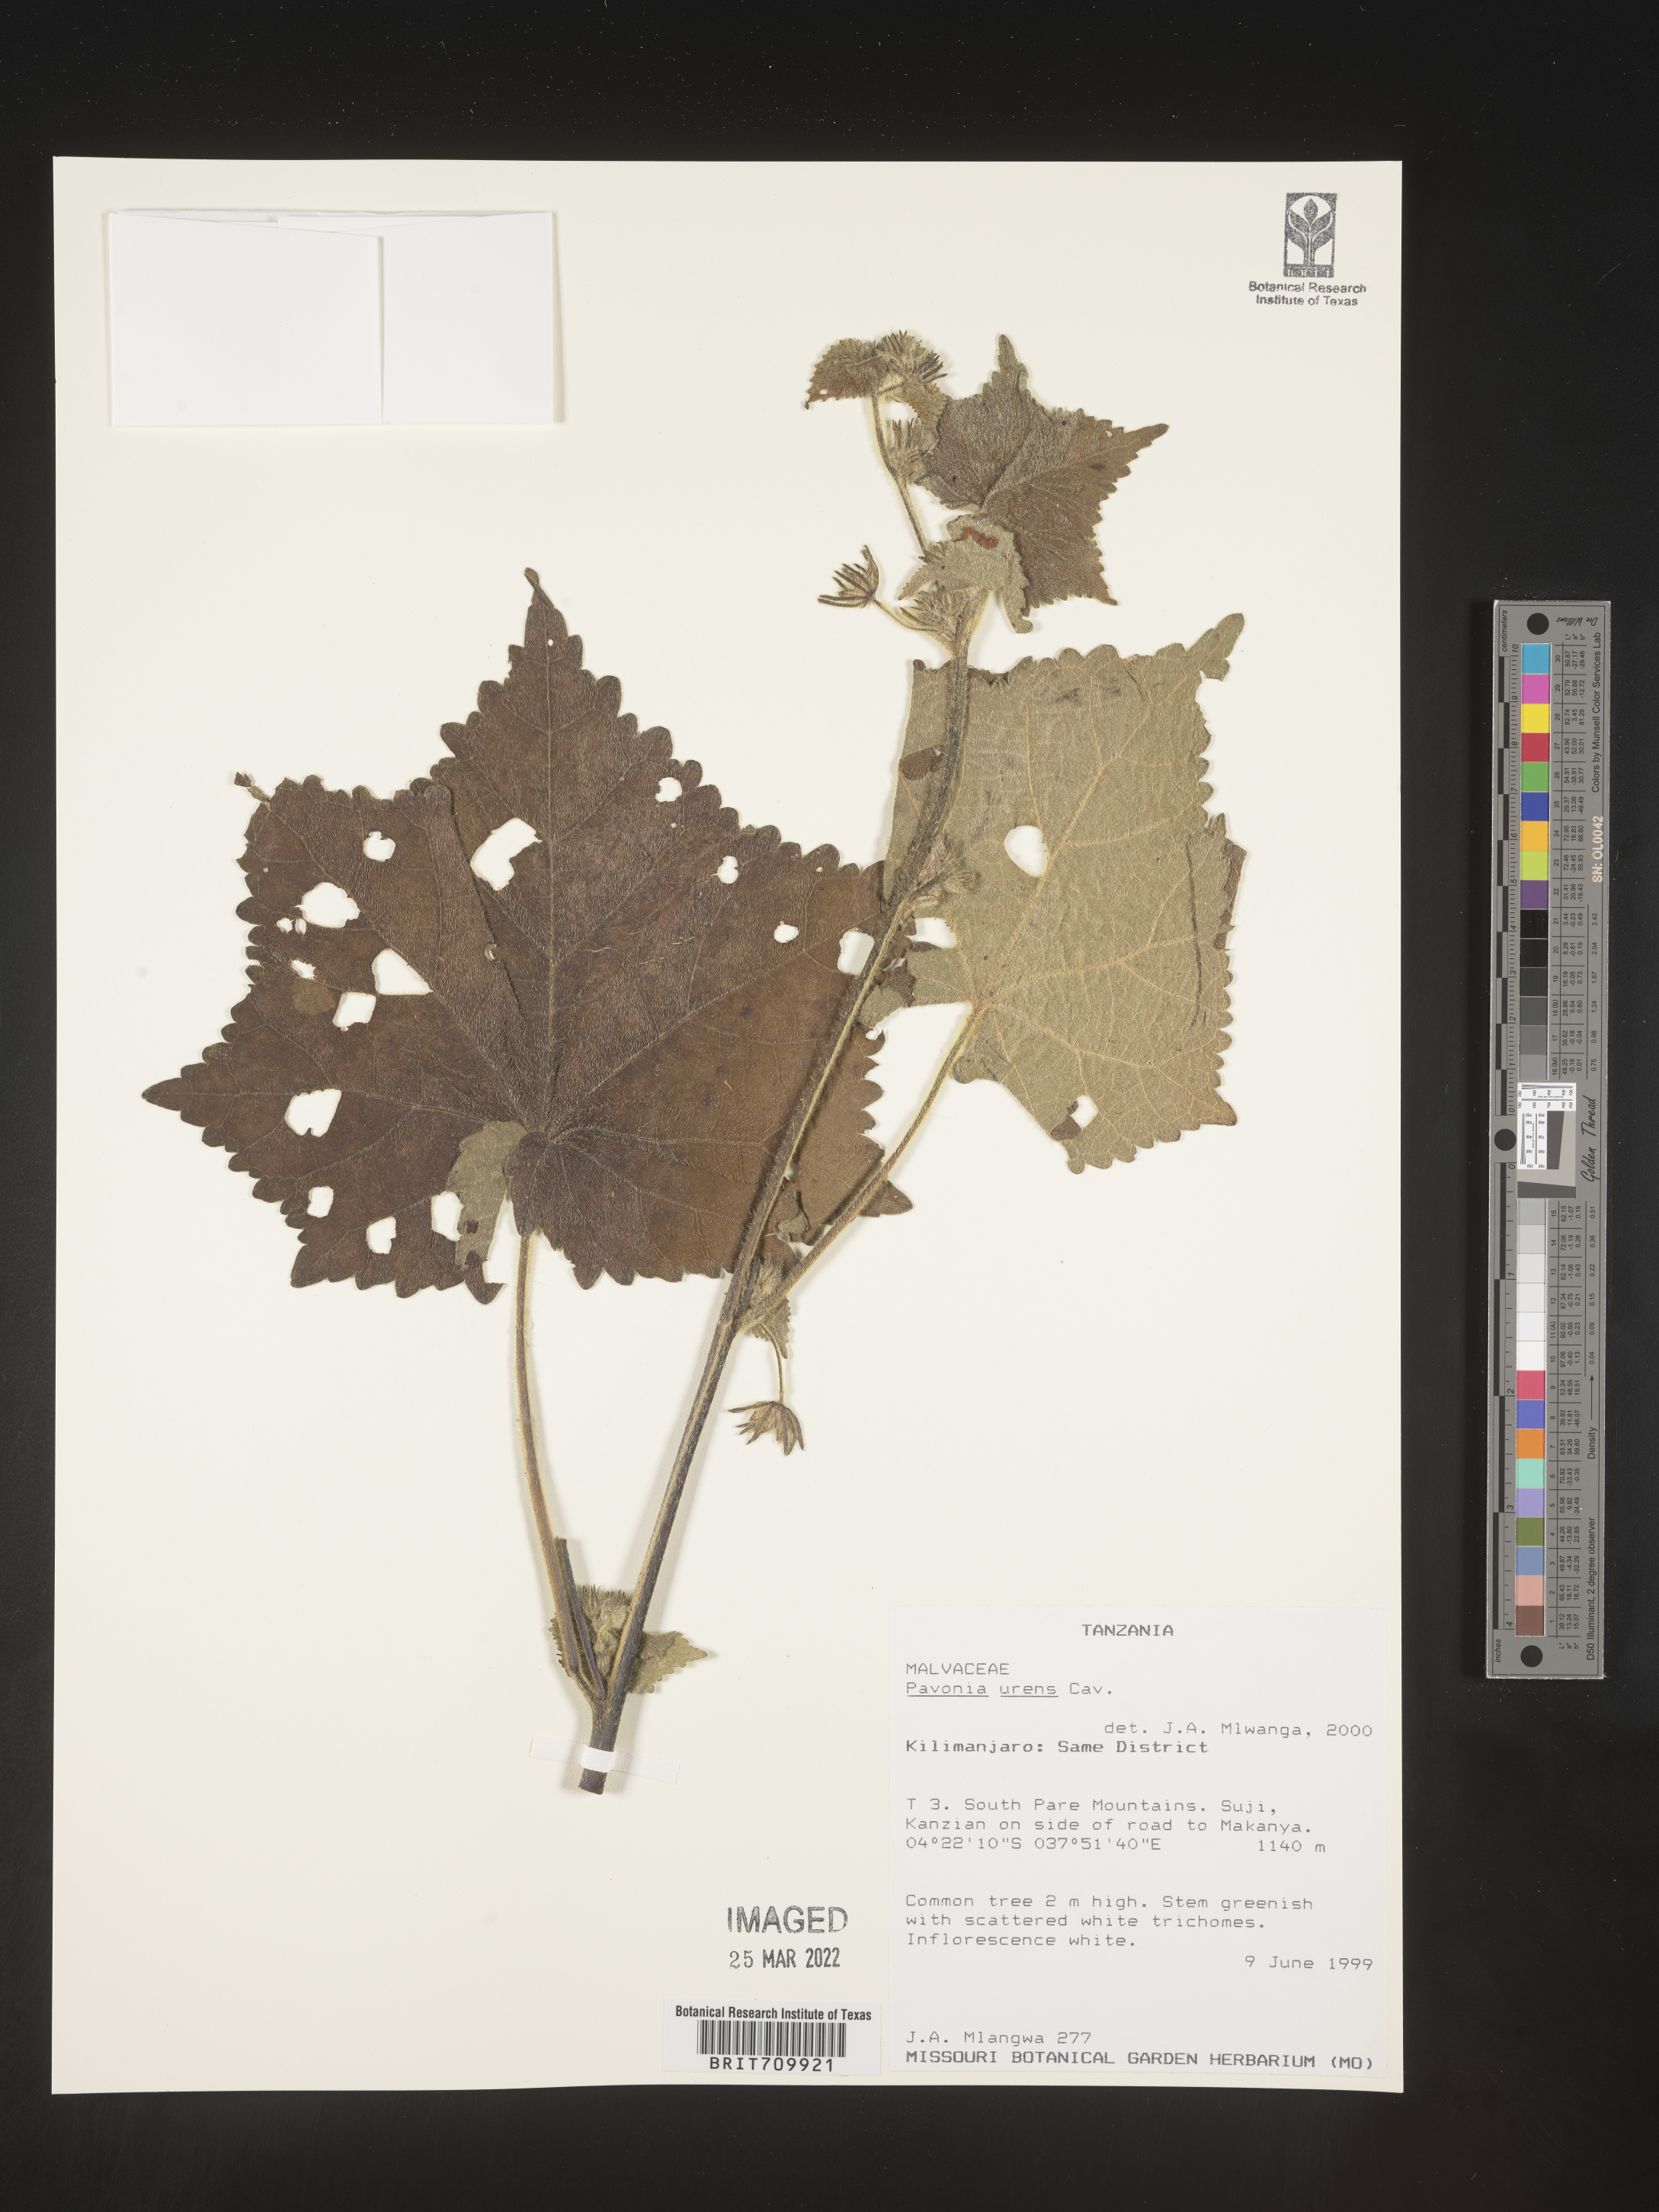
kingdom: Plantae
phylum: Tracheophyta
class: Magnoliopsida
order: Malvales
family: Malvaceae
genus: Pavonia
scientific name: Pavonia
